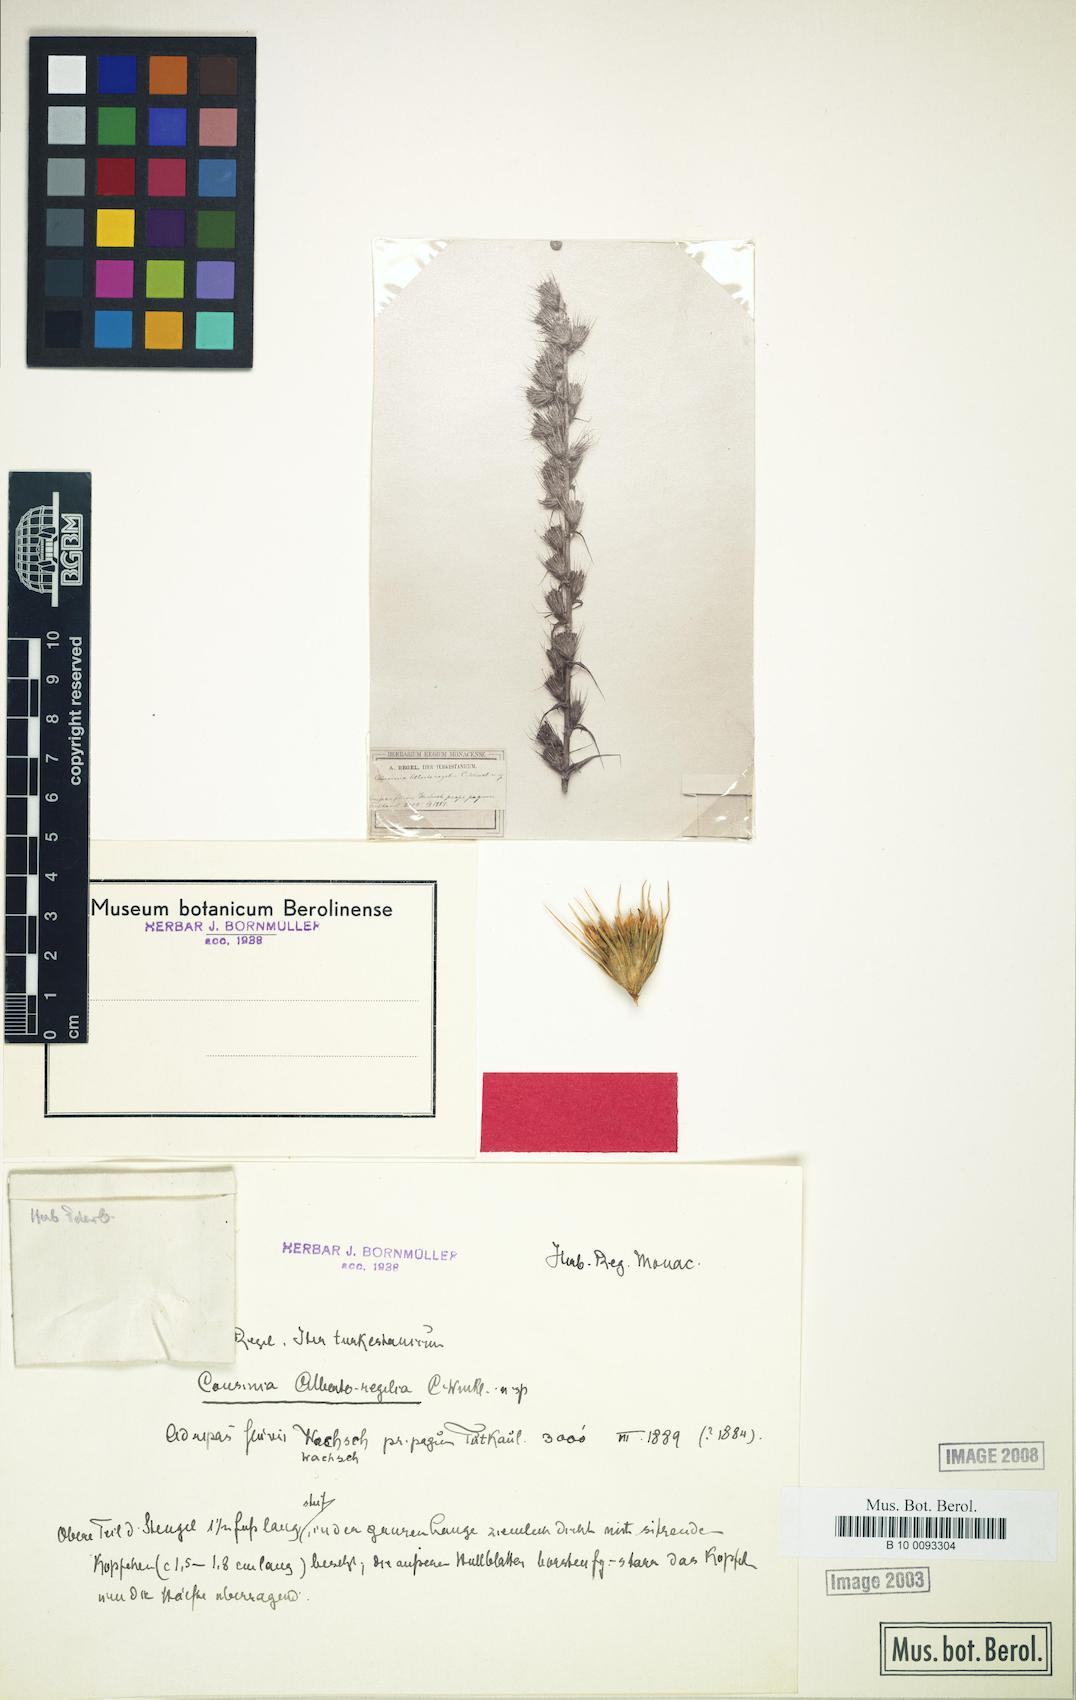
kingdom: Plantae
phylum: Tracheophyta
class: Magnoliopsida
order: Asterales
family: Asteraceae
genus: Cousinia
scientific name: Cousinia albertoregelia
